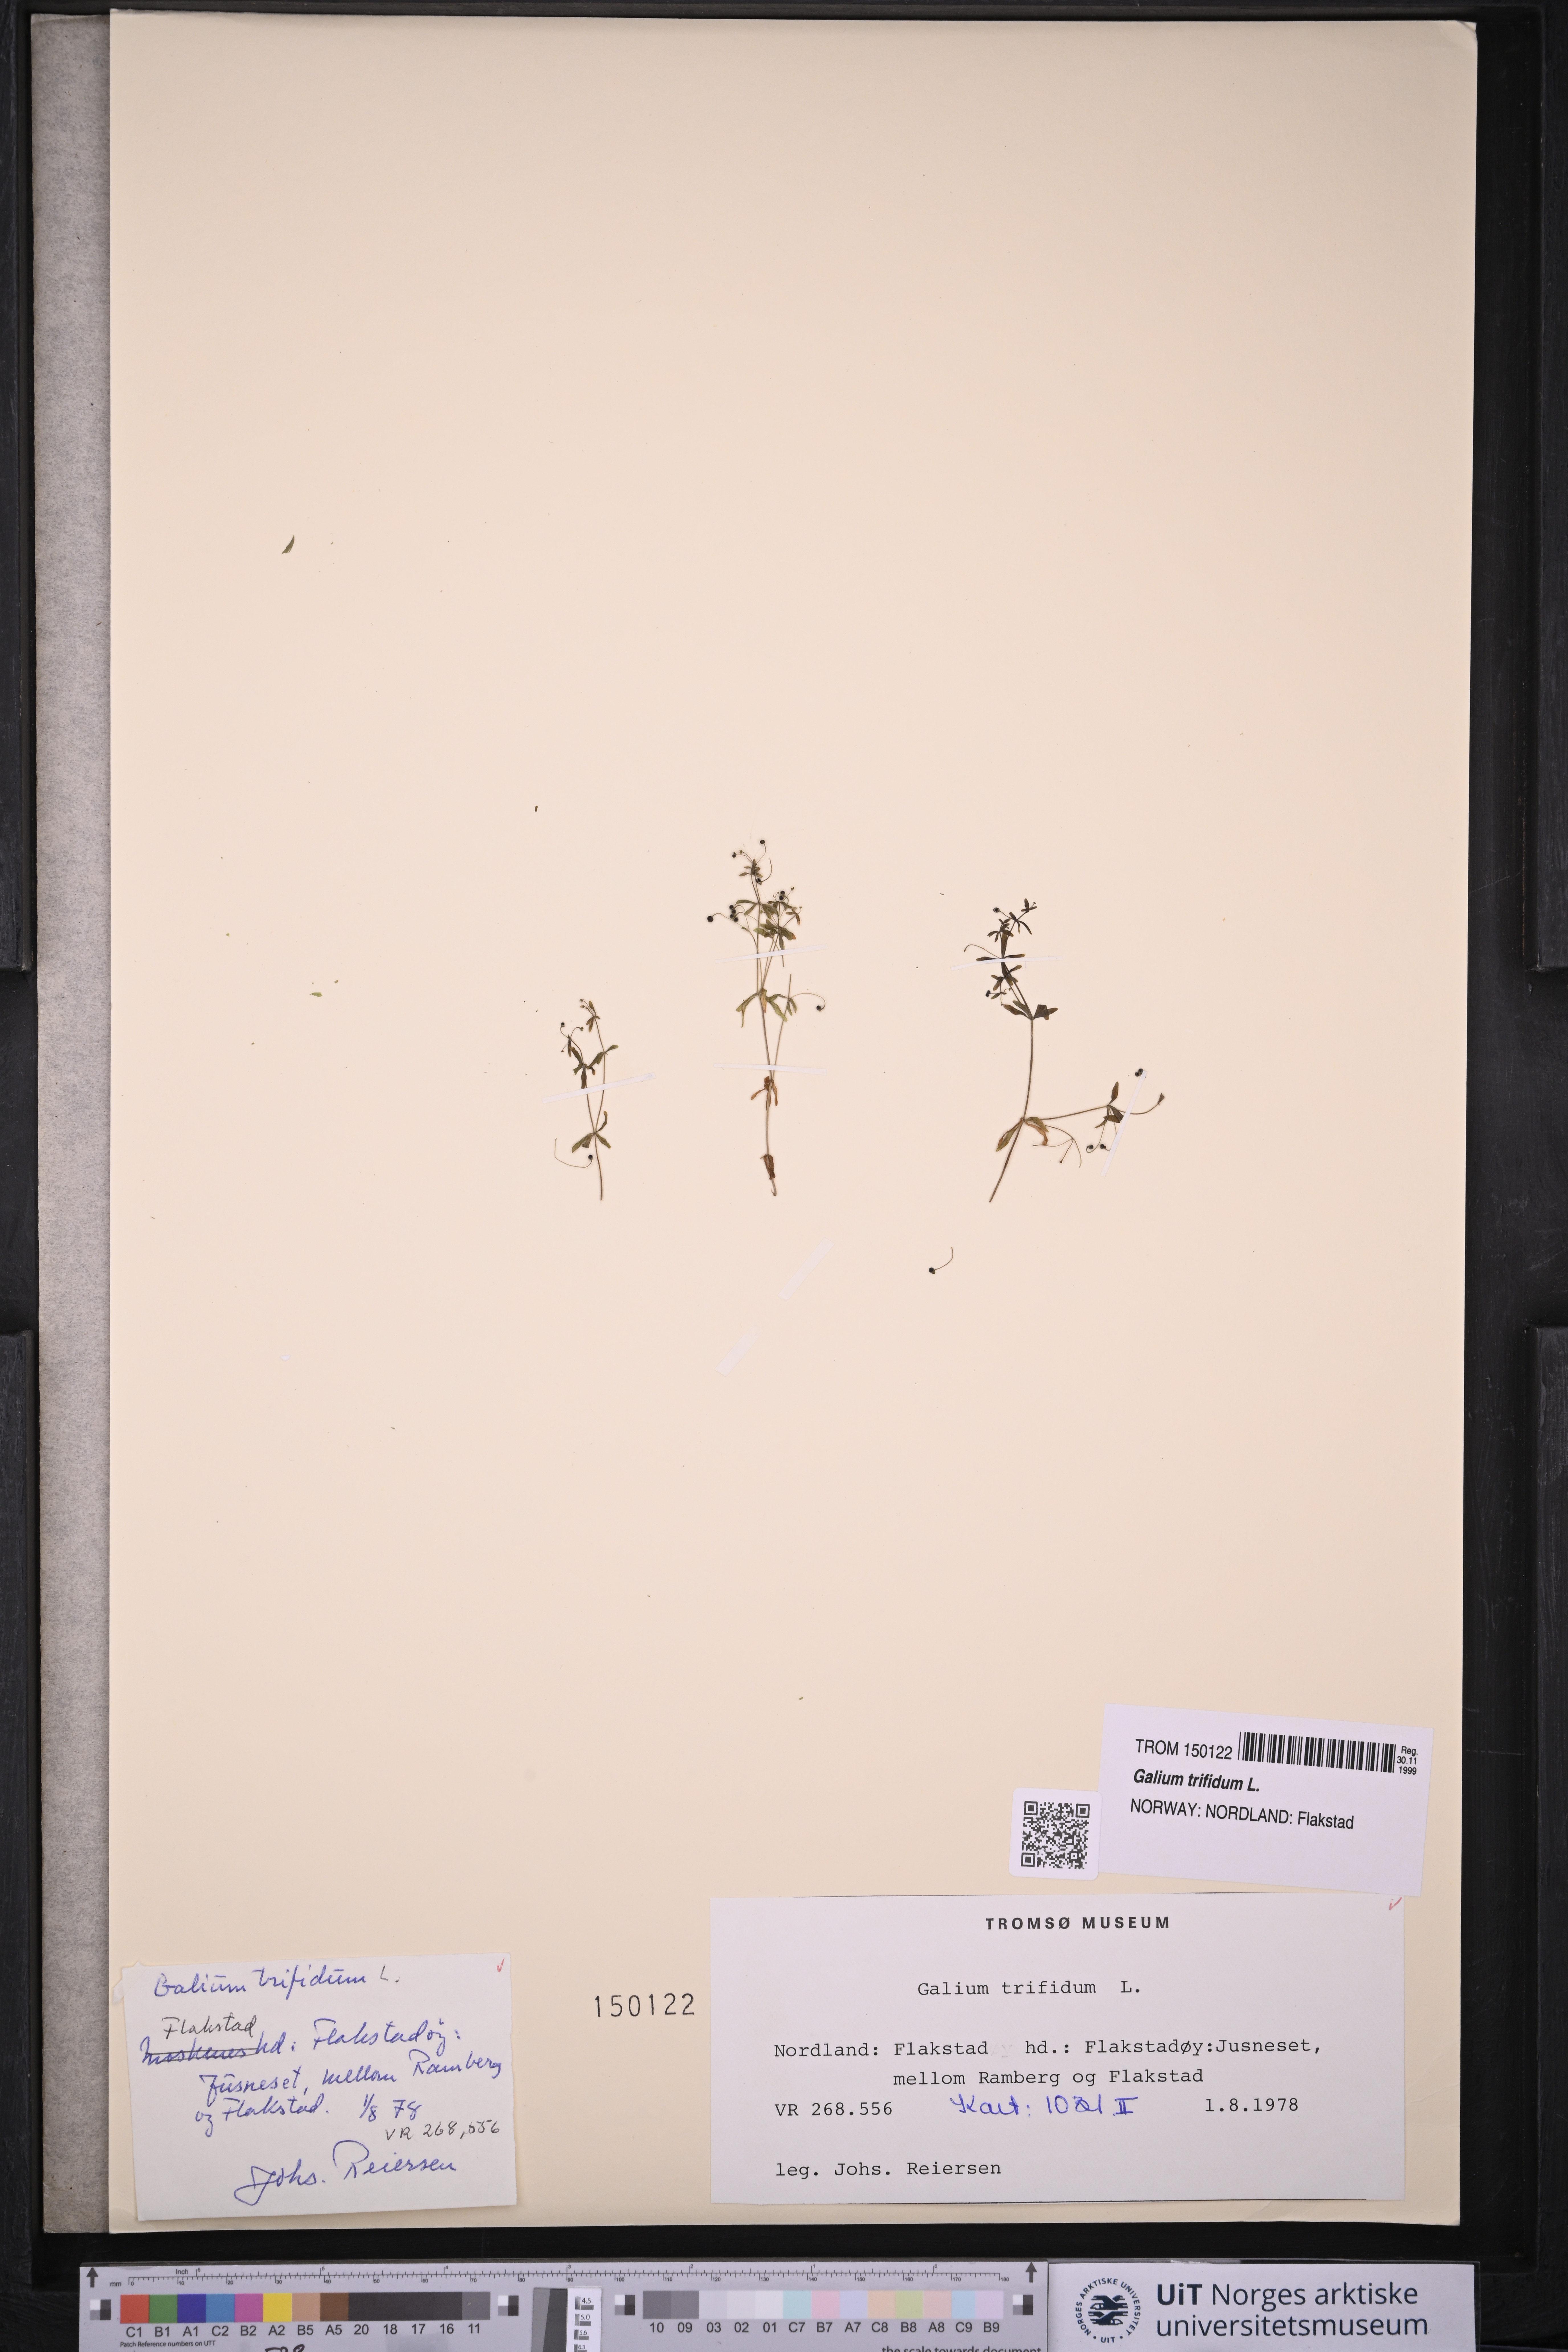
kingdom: Plantae
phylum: Tracheophyta
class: Magnoliopsida
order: Gentianales
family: Rubiaceae
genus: Galium
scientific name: Galium trifidum
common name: Small bedstraw
